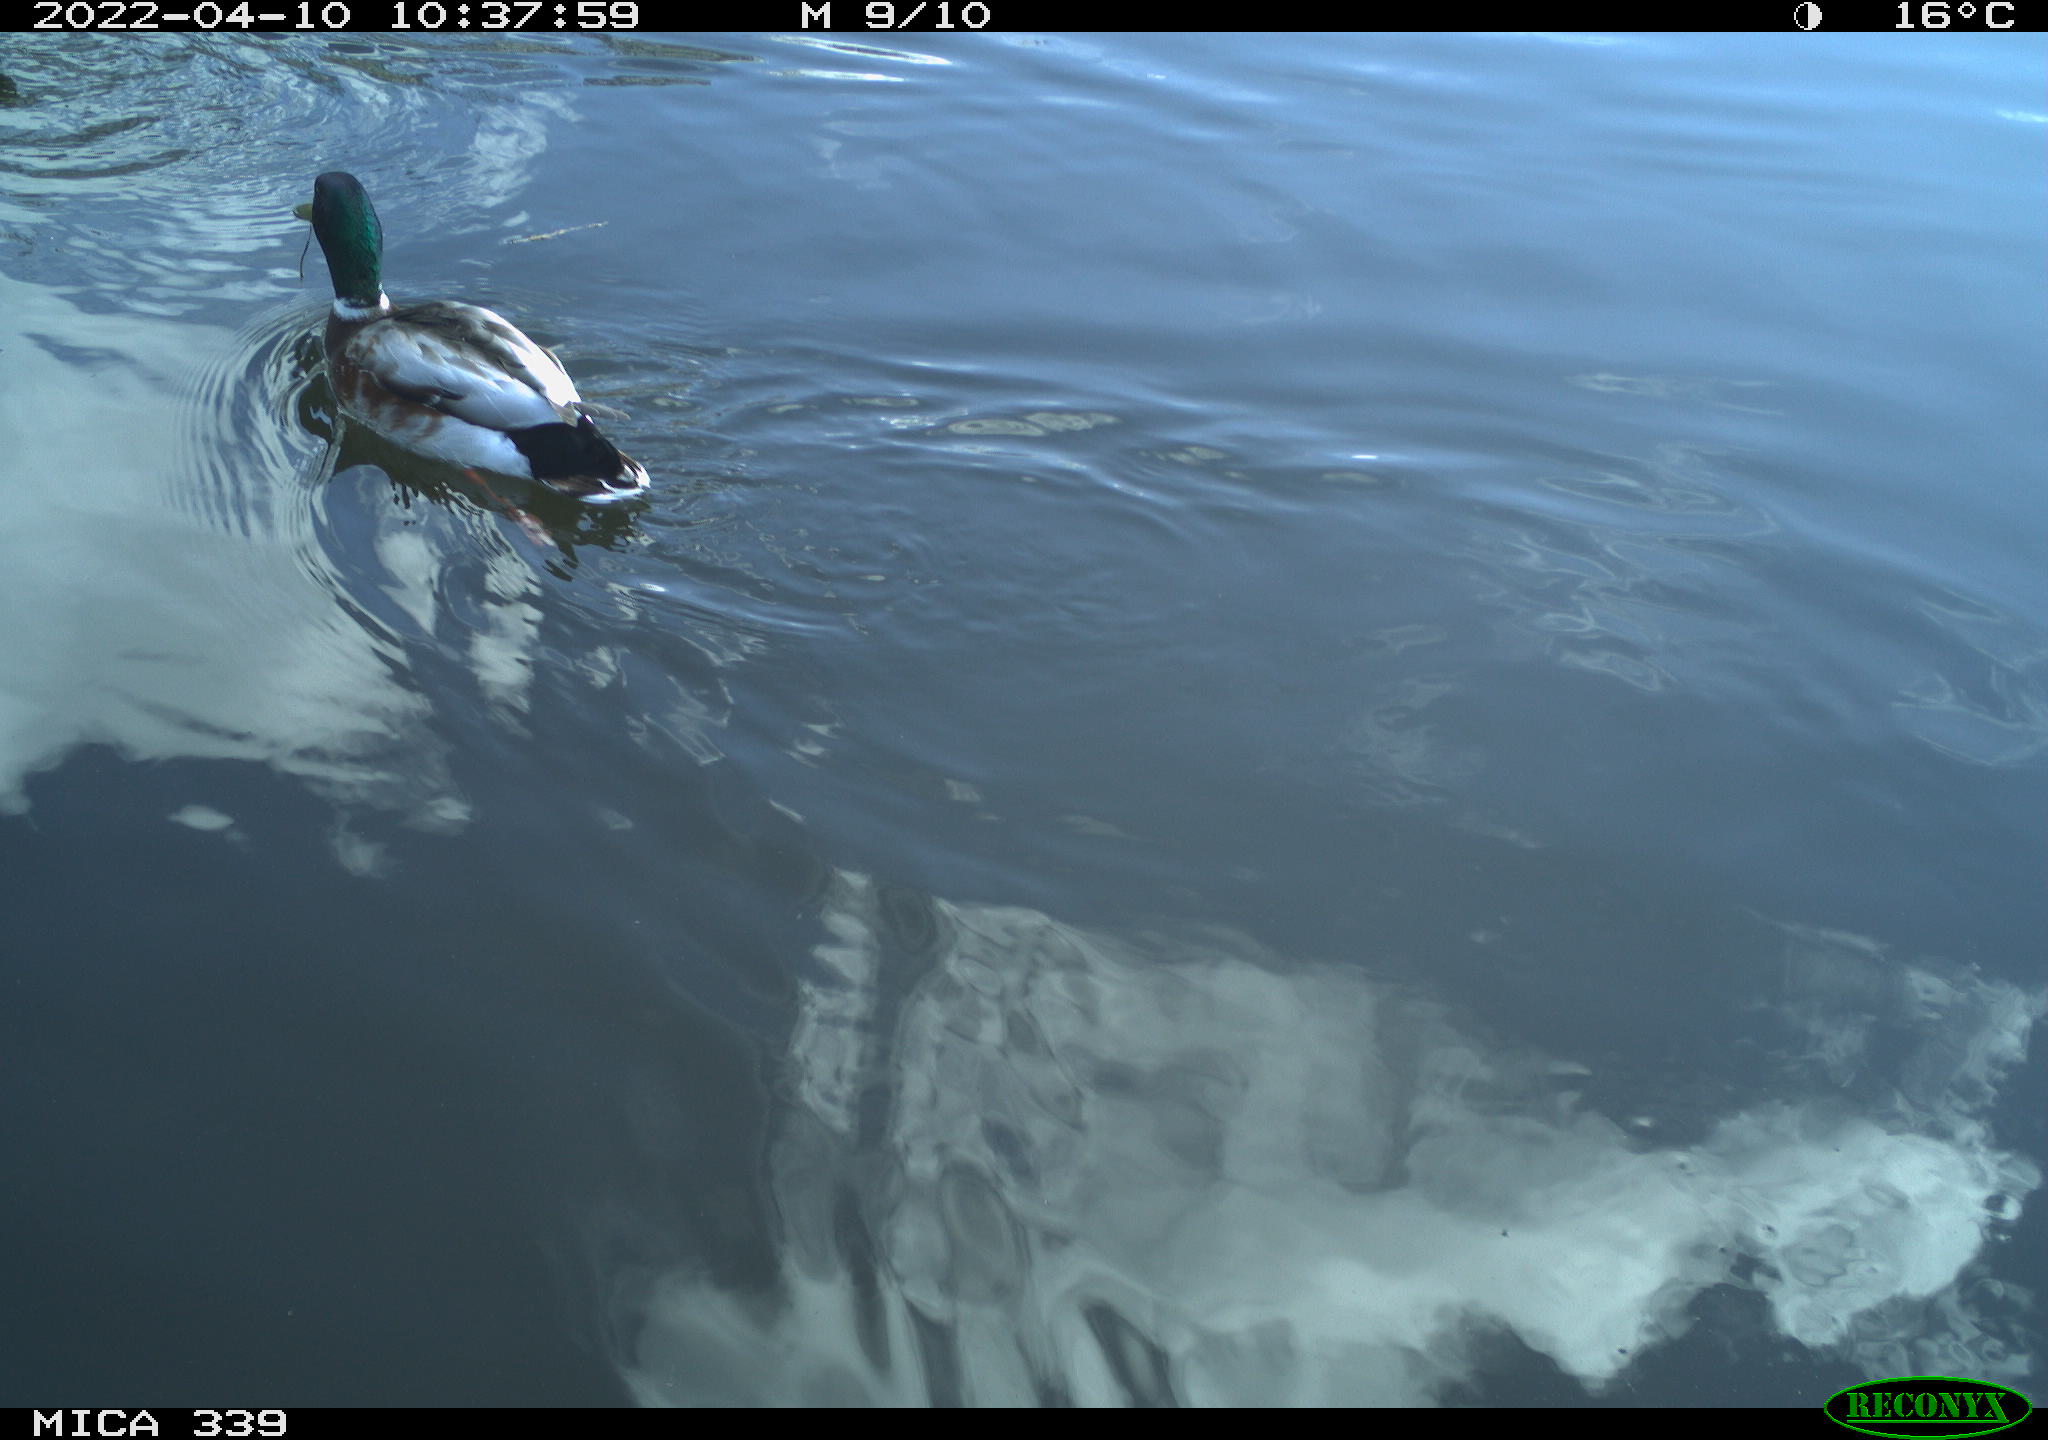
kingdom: Animalia
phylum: Chordata
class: Aves
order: Anseriformes
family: Anatidae
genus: Anas
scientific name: Anas platyrhynchos
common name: Mallard
